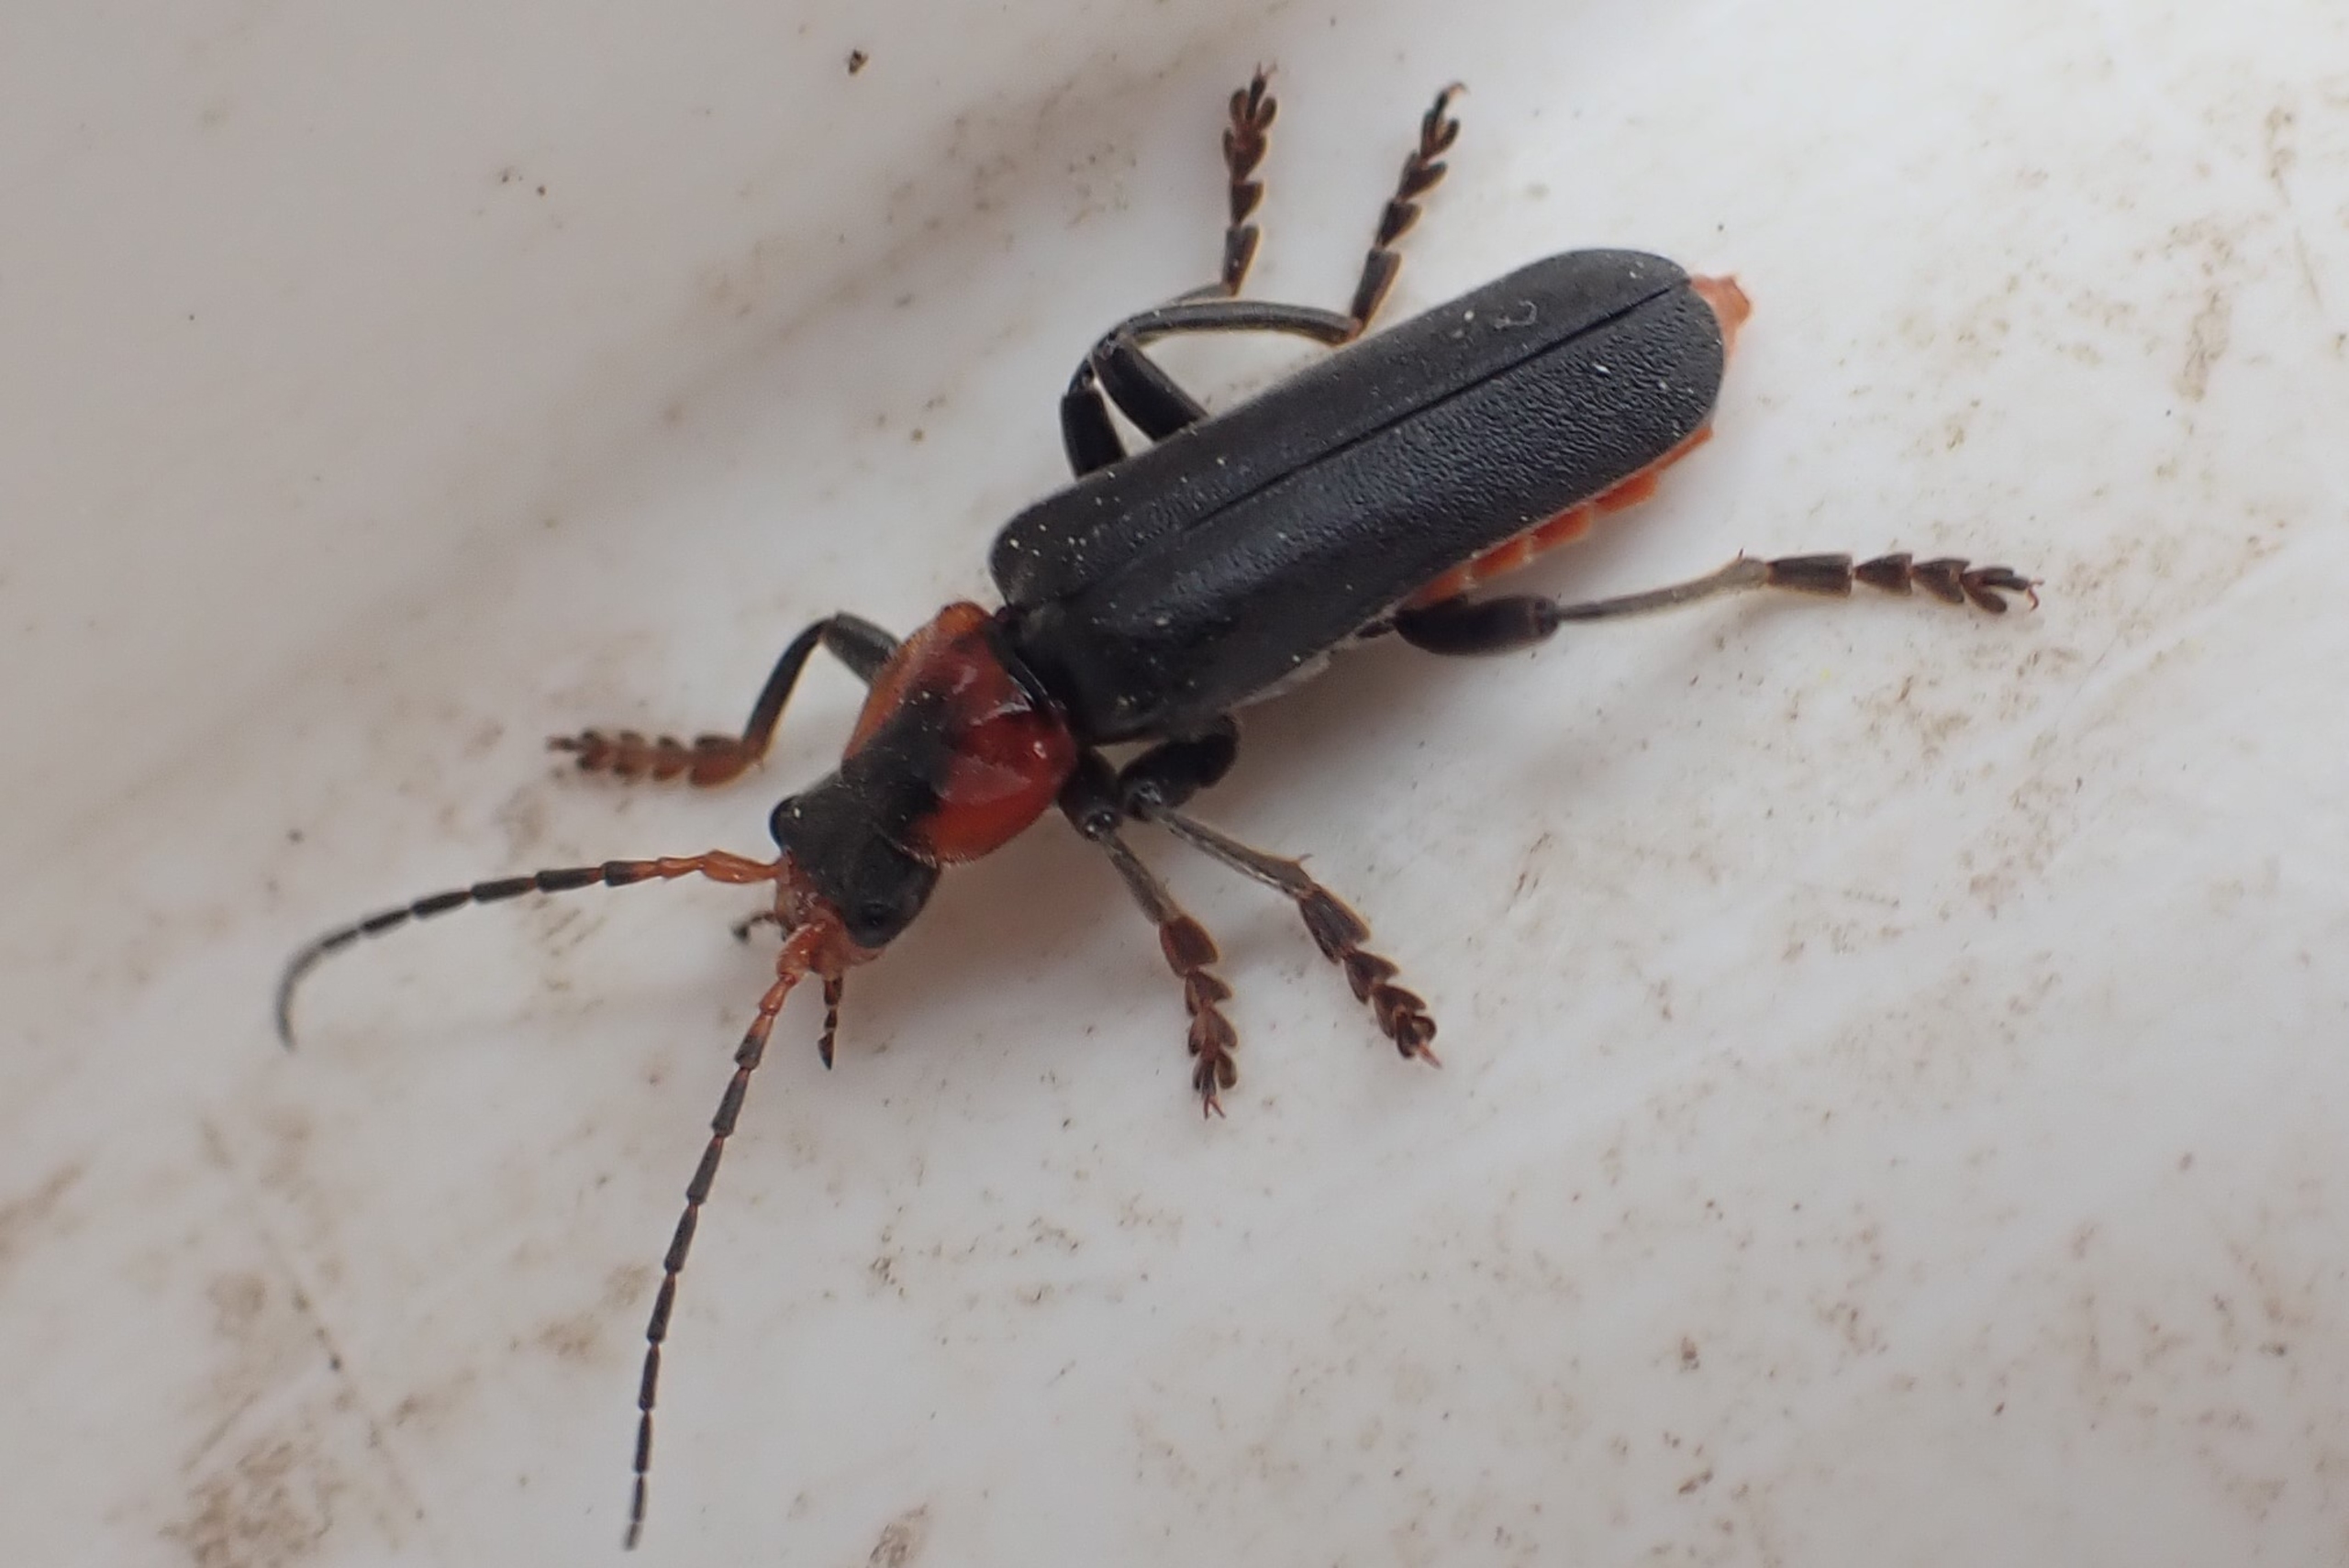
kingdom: Animalia
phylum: Arthropoda
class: Insecta
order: Coleoptera
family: Cantharidae
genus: Cantharis
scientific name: Cantharis fusca
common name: Stor blødvinge
